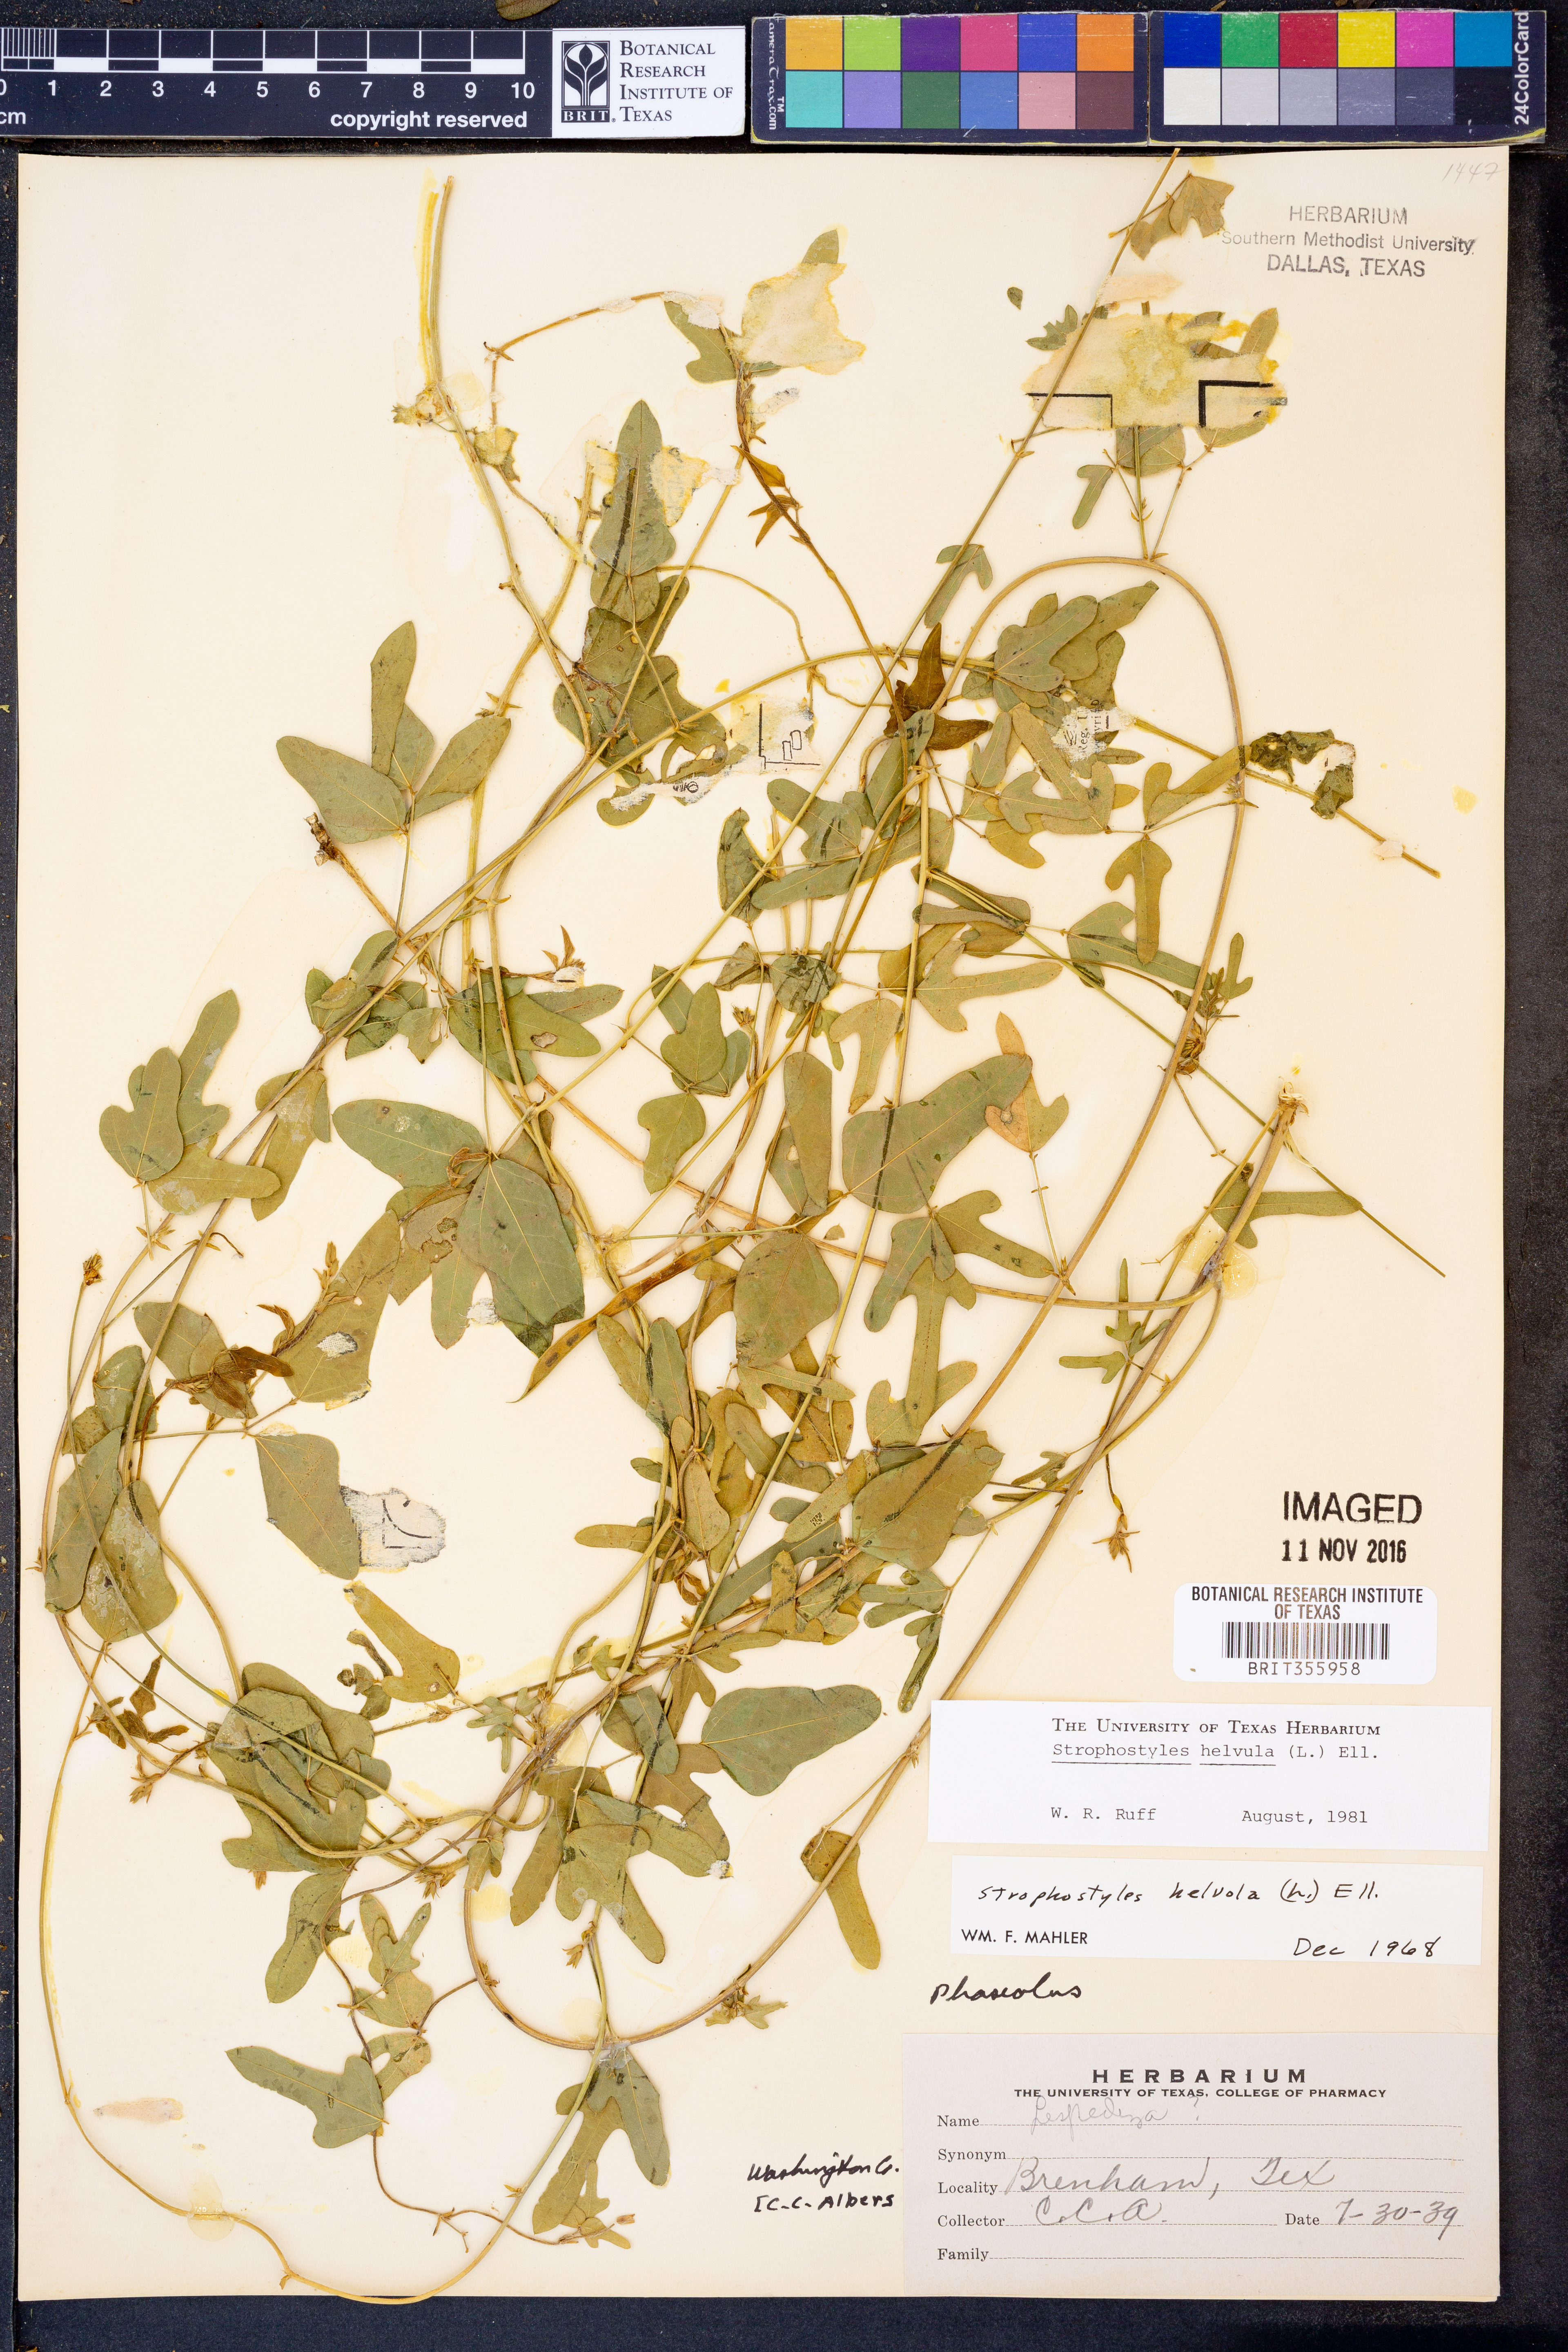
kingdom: Plantae
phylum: Tracheophyta
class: Magnoliopsida
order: Fabales
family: Fabaceae
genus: Strophostyles
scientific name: Strophostyles helvula
